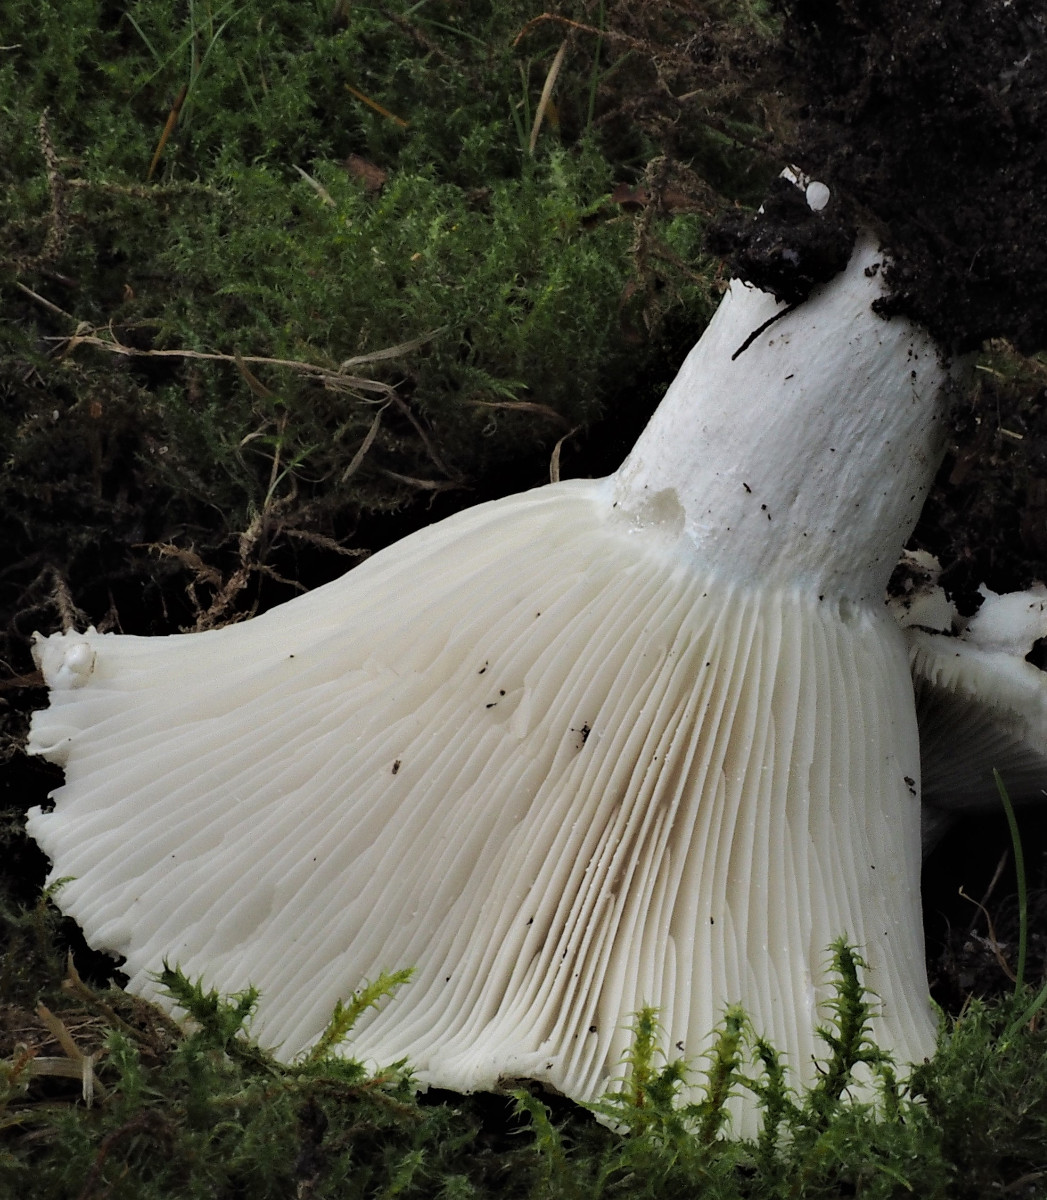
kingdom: Fungi
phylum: Basidiomycota
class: Agaricomycetes
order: Russulales
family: Russulaceae
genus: Russula
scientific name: Russula delica
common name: almindelig tragt-skørhat
